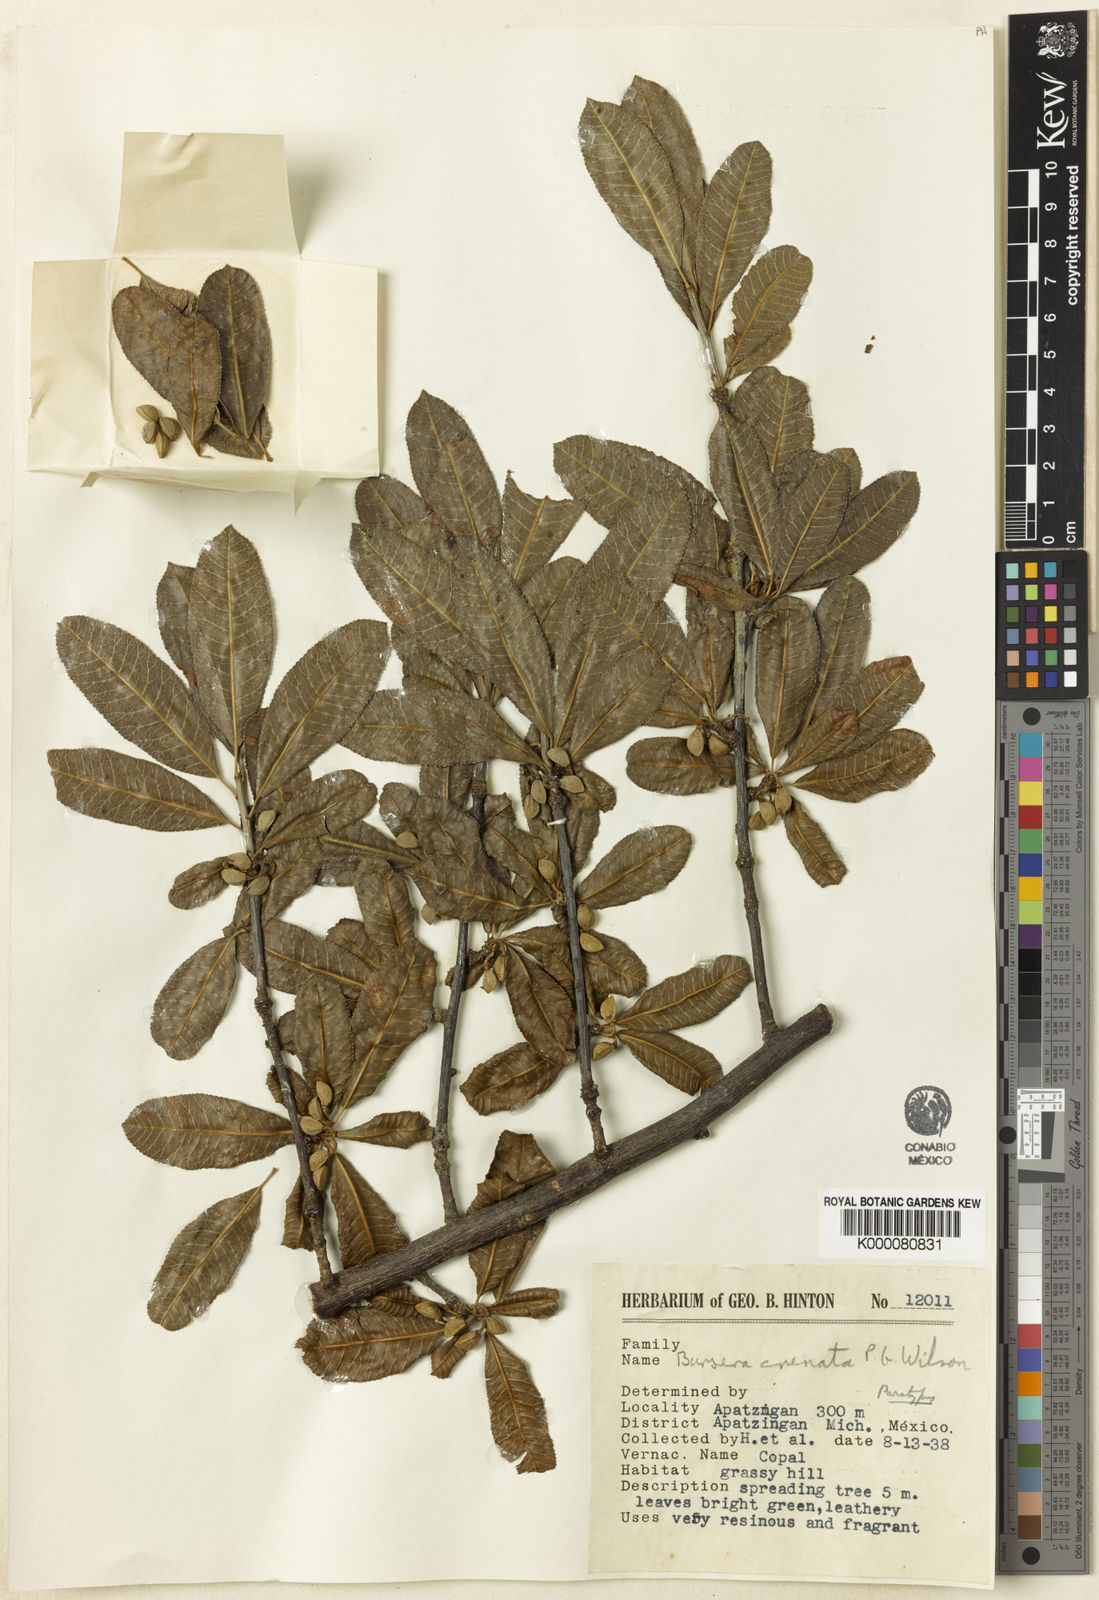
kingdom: Plantae
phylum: Tracheophyta
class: Magnoliopsida
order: Sapindales
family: Burseraceae
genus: Bursera
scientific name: Bursera crenata
